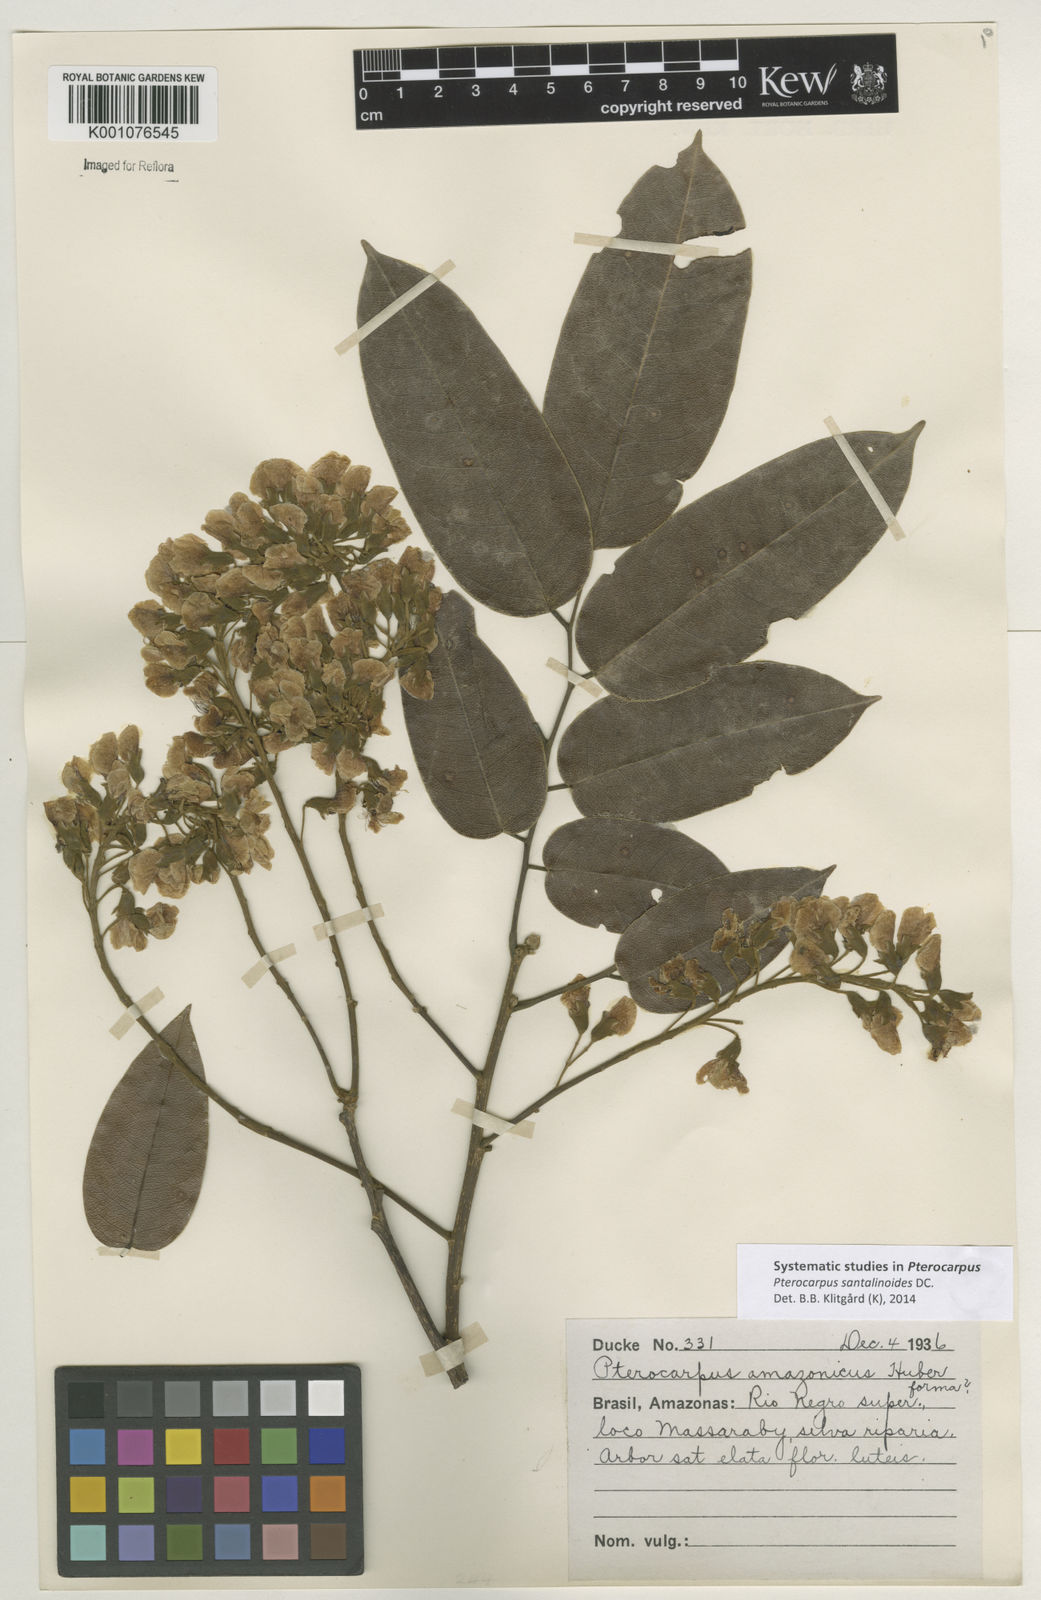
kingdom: Plantae
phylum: Tracheophyta
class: Magnoliopsida
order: Fabales
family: Fabaceae
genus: Pterocarpus
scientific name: Pterocarpus santalinoides
